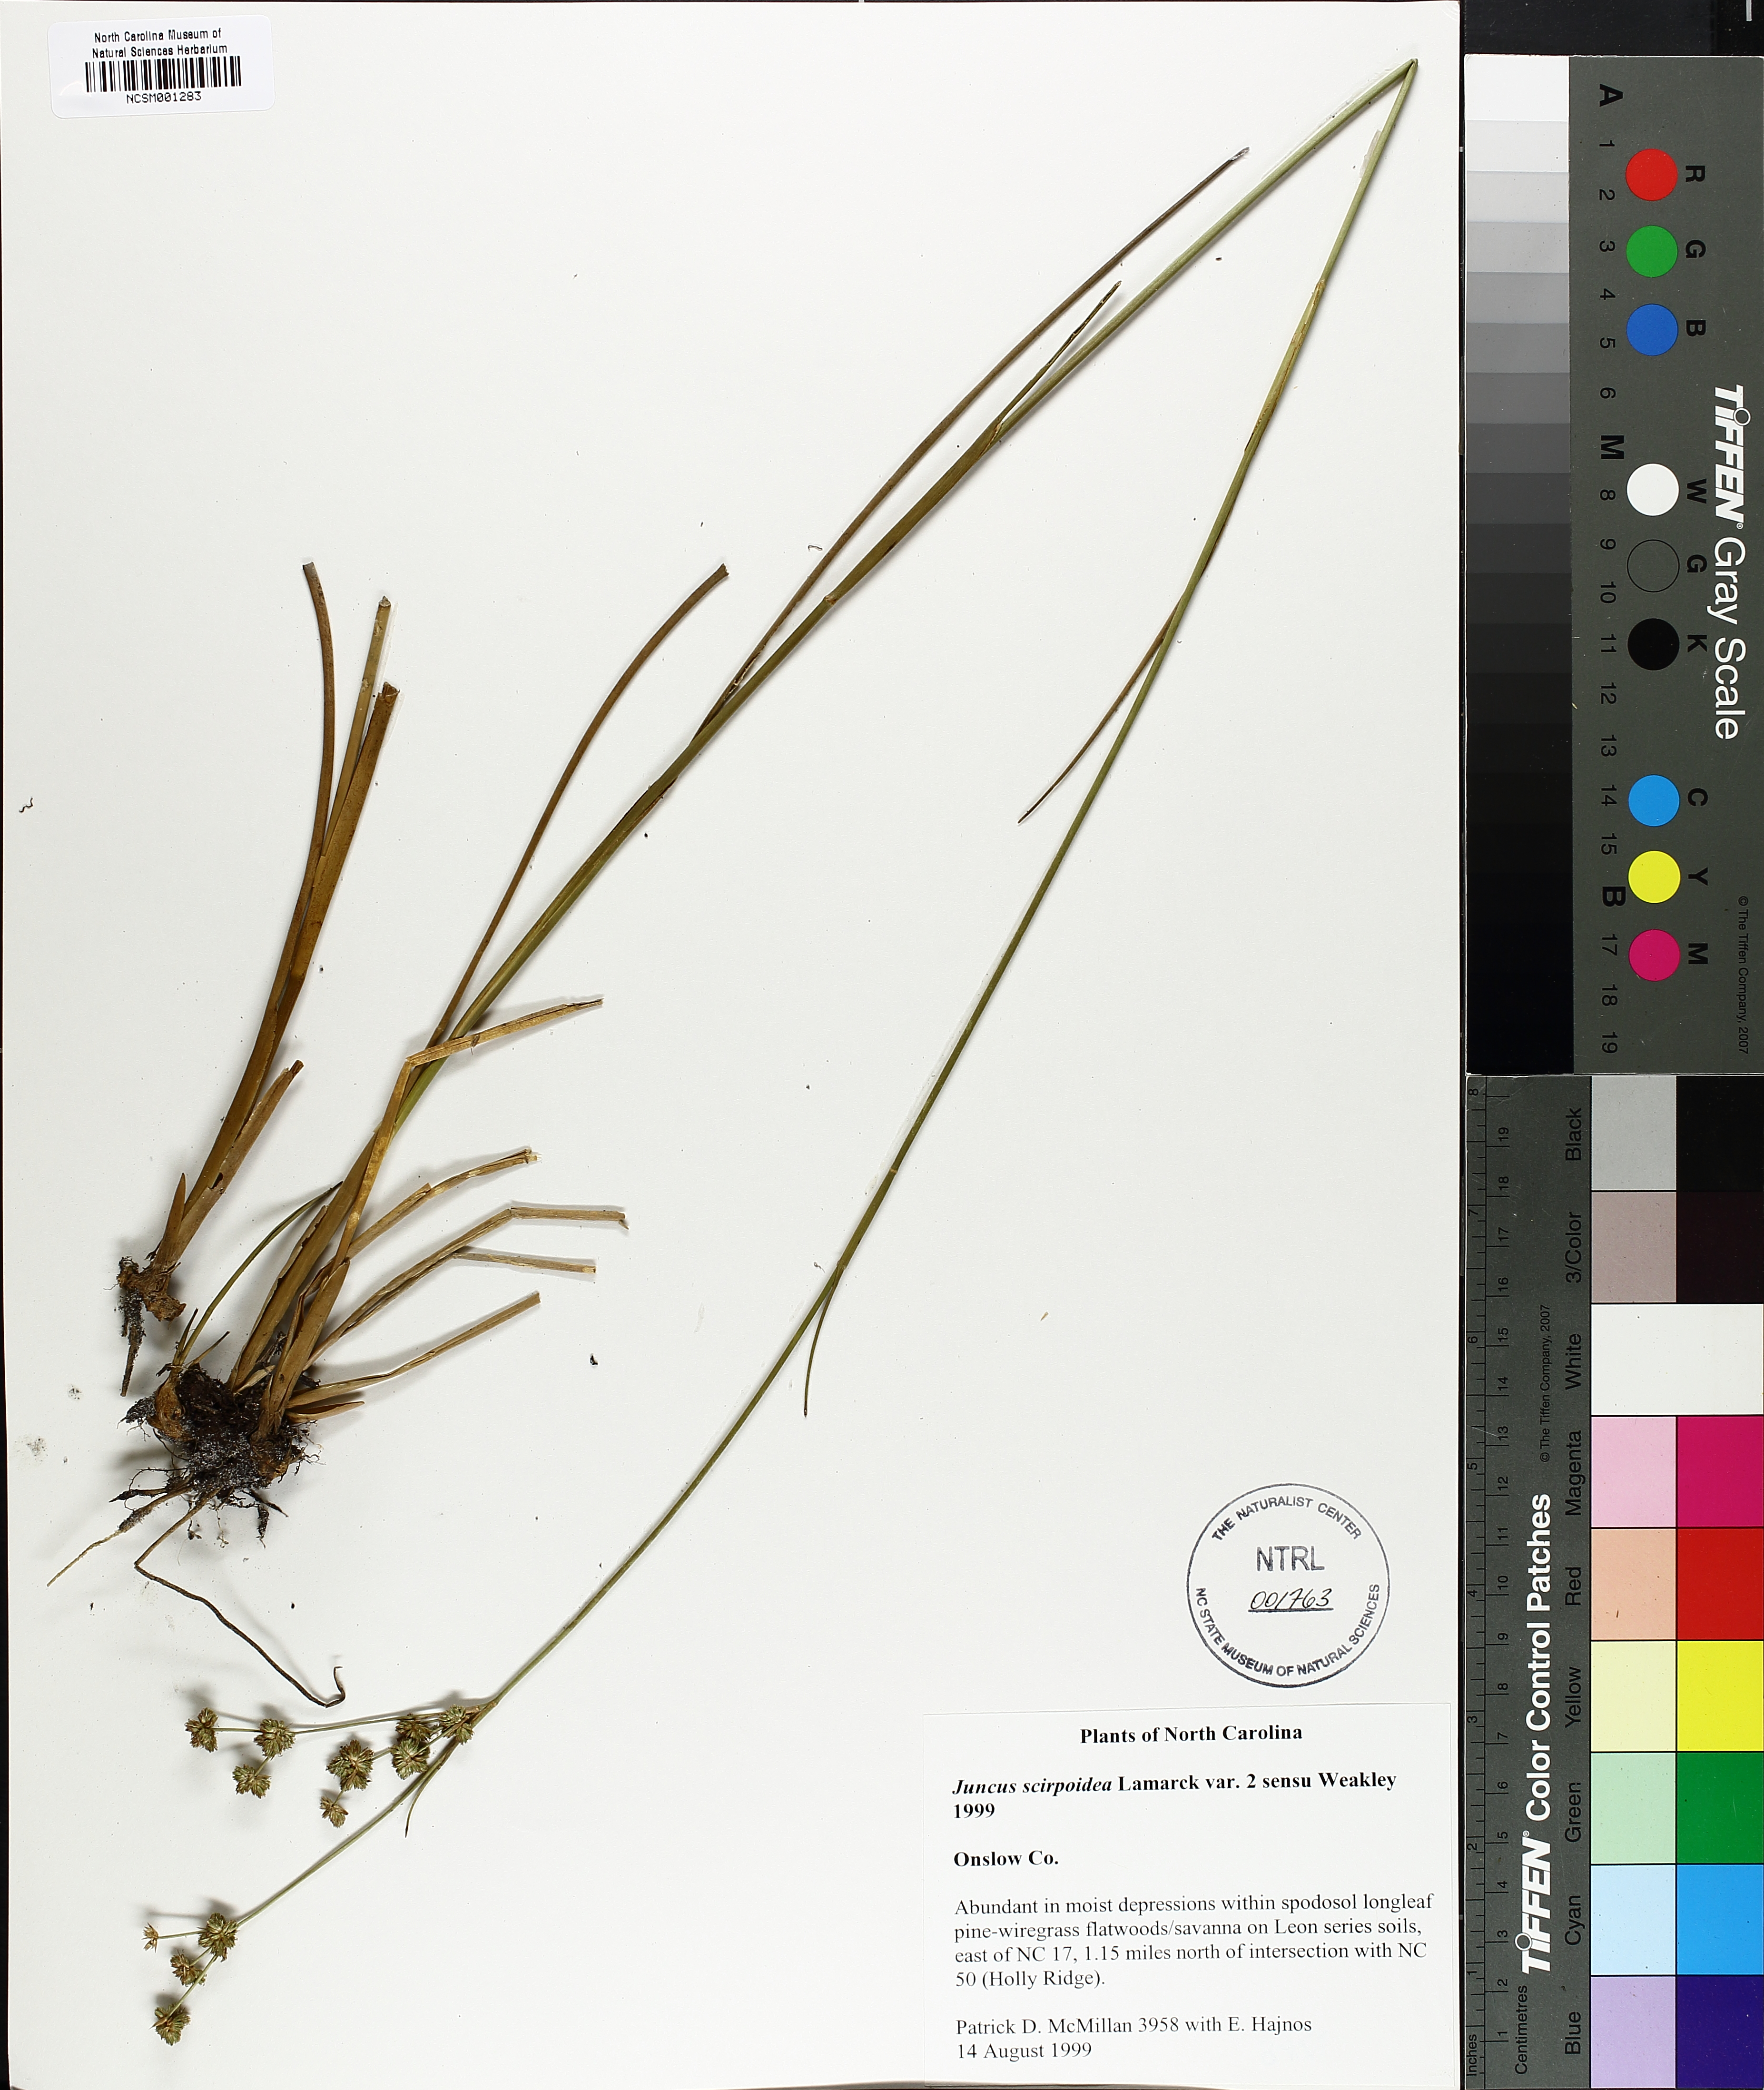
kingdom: Plantae
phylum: Tracheophyta
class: Liliopsida
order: Poales
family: Juncaceae
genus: Juncus
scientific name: Juncus scirpoides
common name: Needlepod rush
